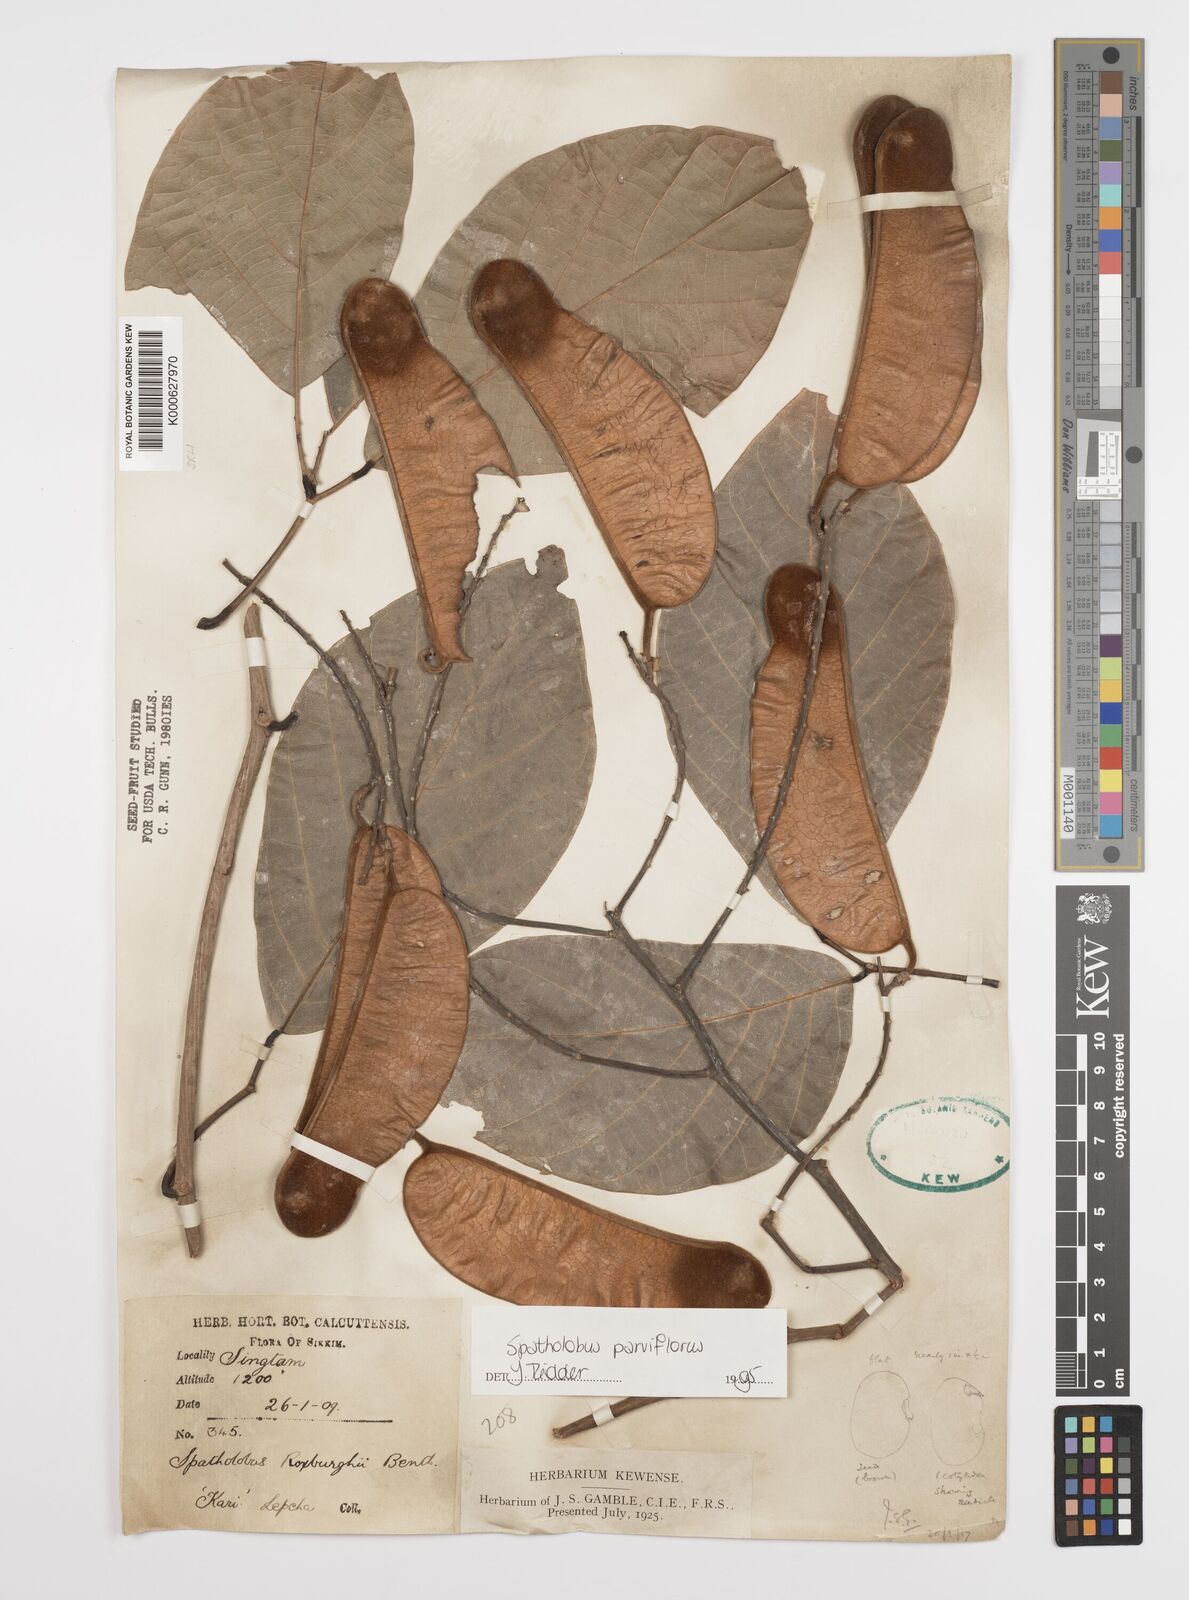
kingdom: Plantae
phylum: Tracheophyta
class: Magnoliopsida
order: Fabales
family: Fabaceae
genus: Spatholobus
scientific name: Spatholobus parviflorus
